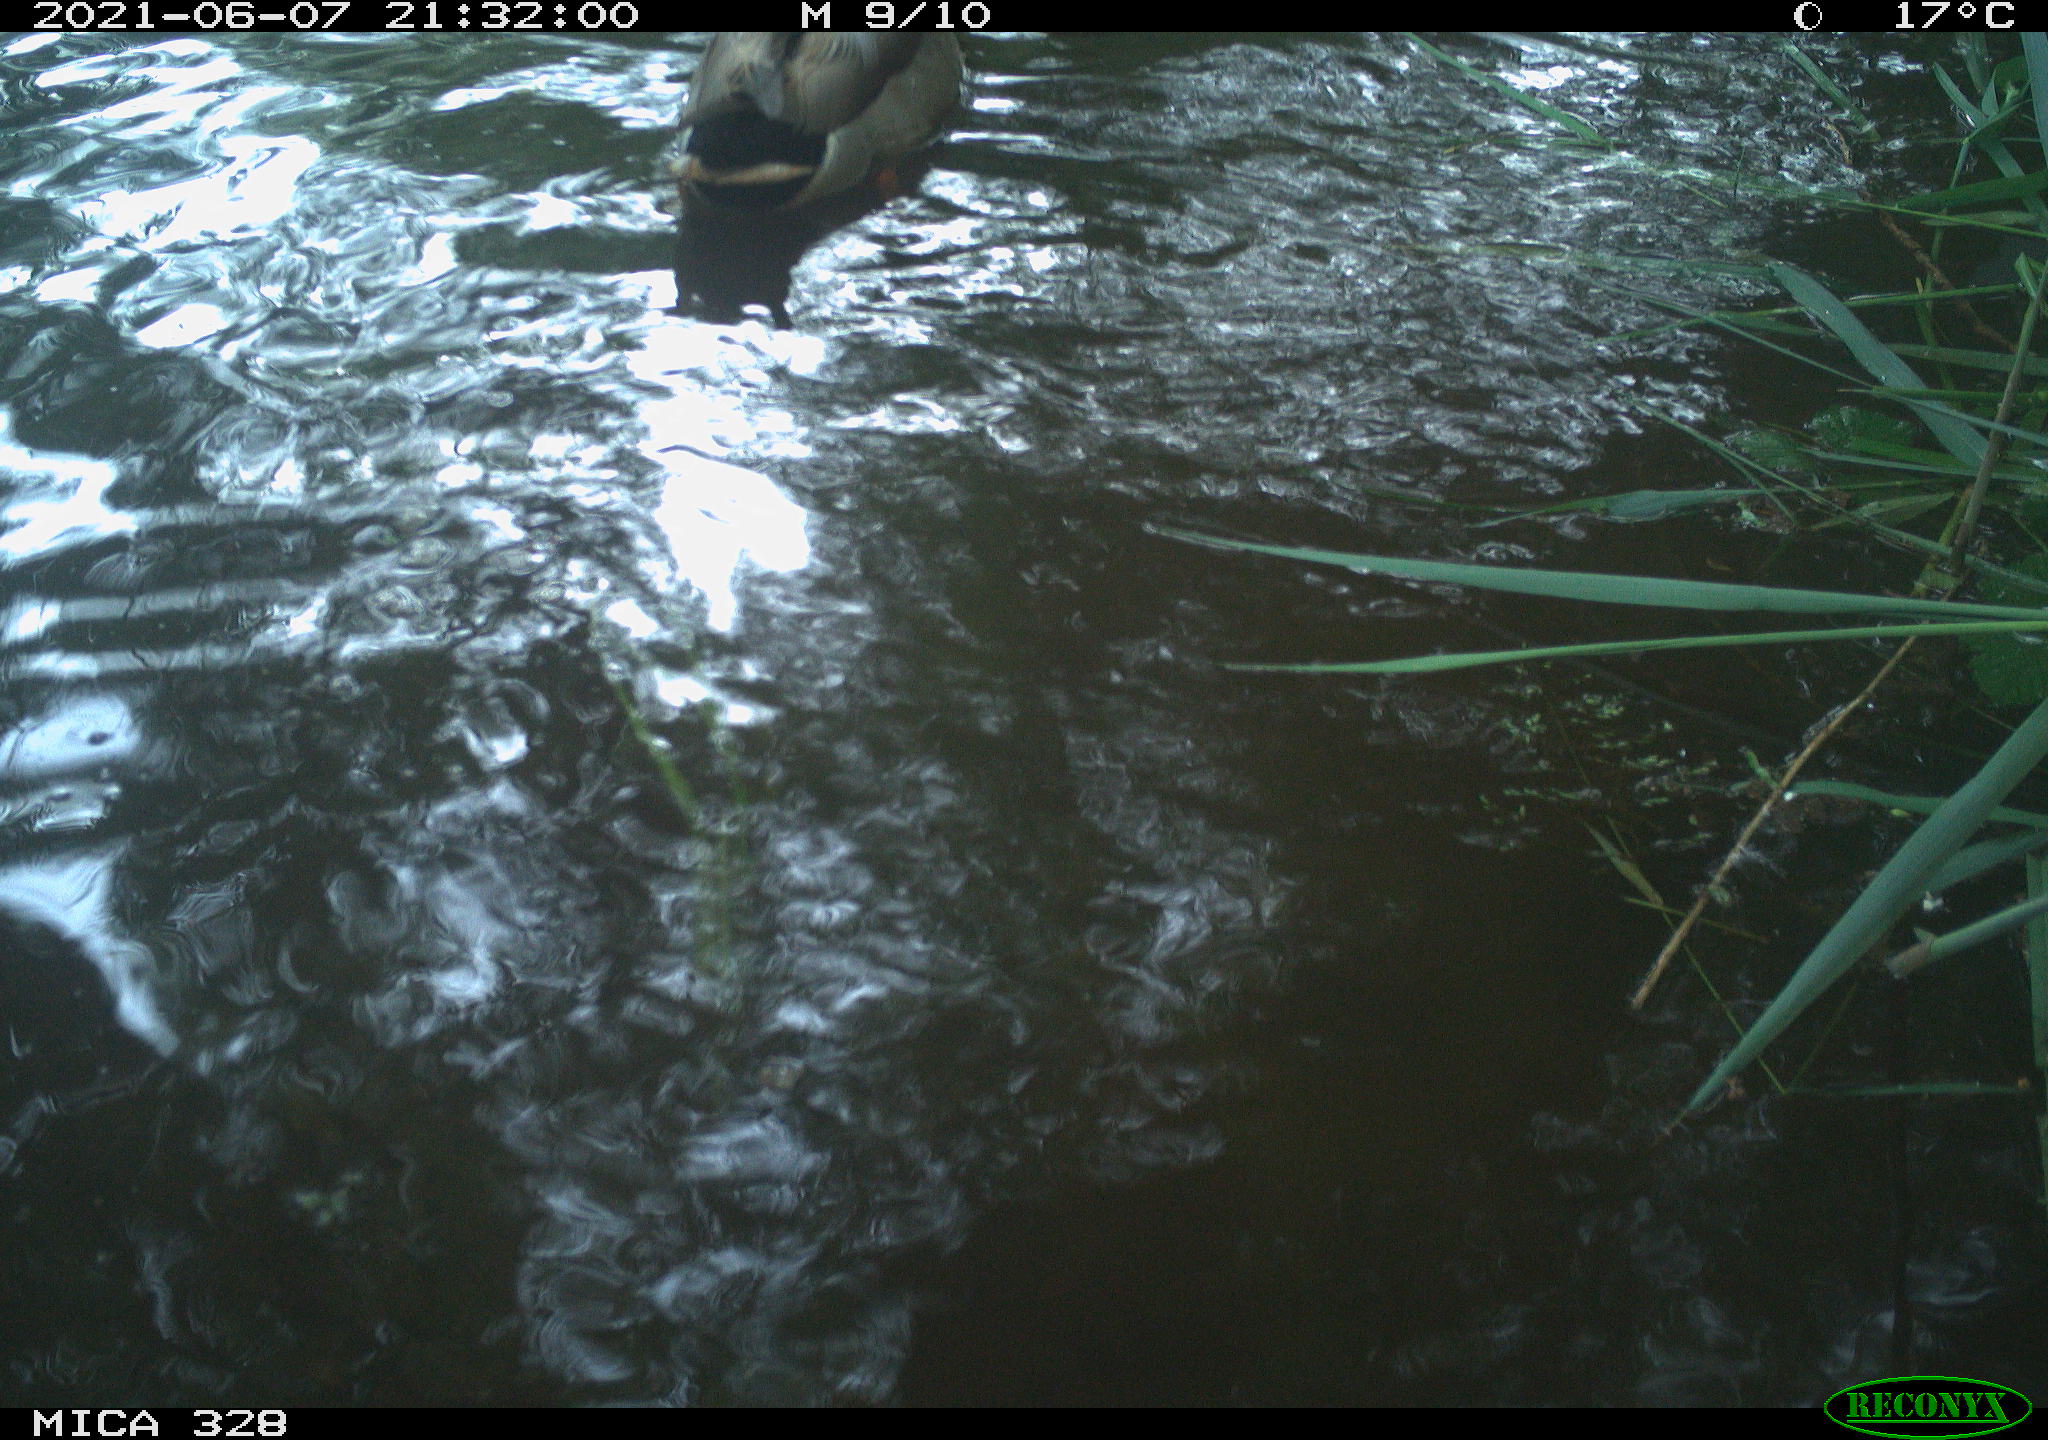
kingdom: Animalia
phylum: Chordata
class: Aves
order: Anseriformes
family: Anatidae
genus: Anas
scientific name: Anas platyrhynchos
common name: Mallard
